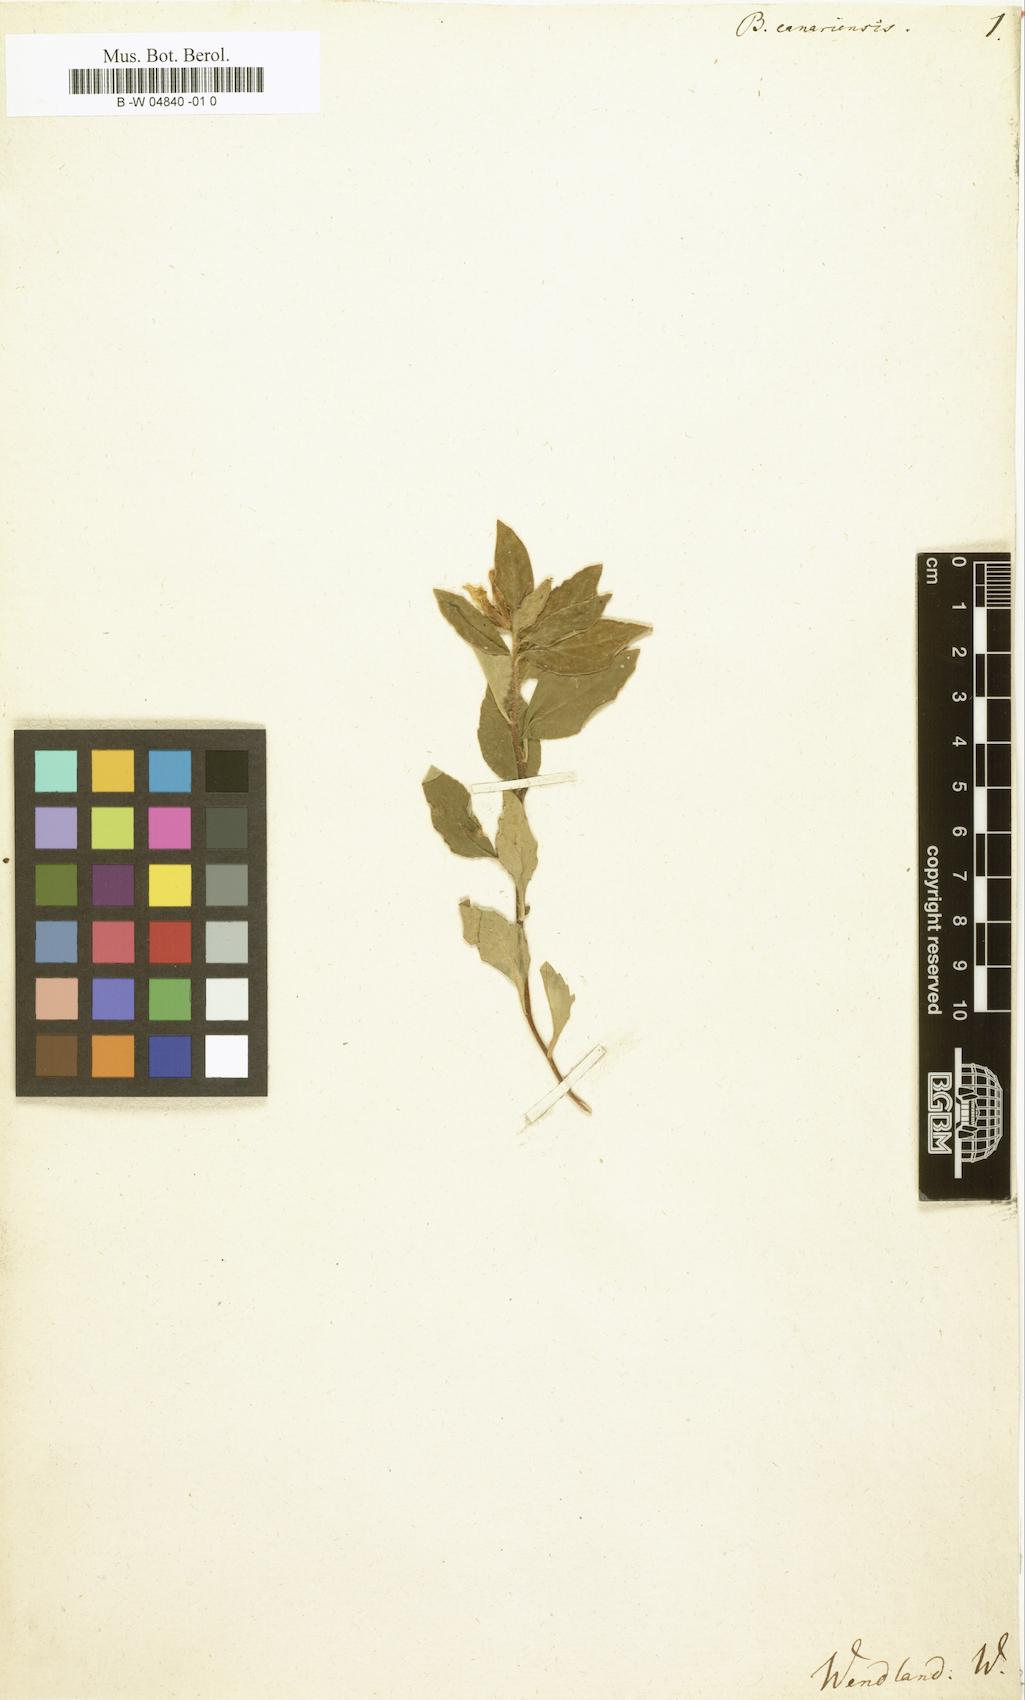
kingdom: Plantae
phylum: Tracheophyta
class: Magnoliopsida
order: Apiales
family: Pittosporaceae
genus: Billardiera
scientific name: Billardiera scandens
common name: Apple-berry
